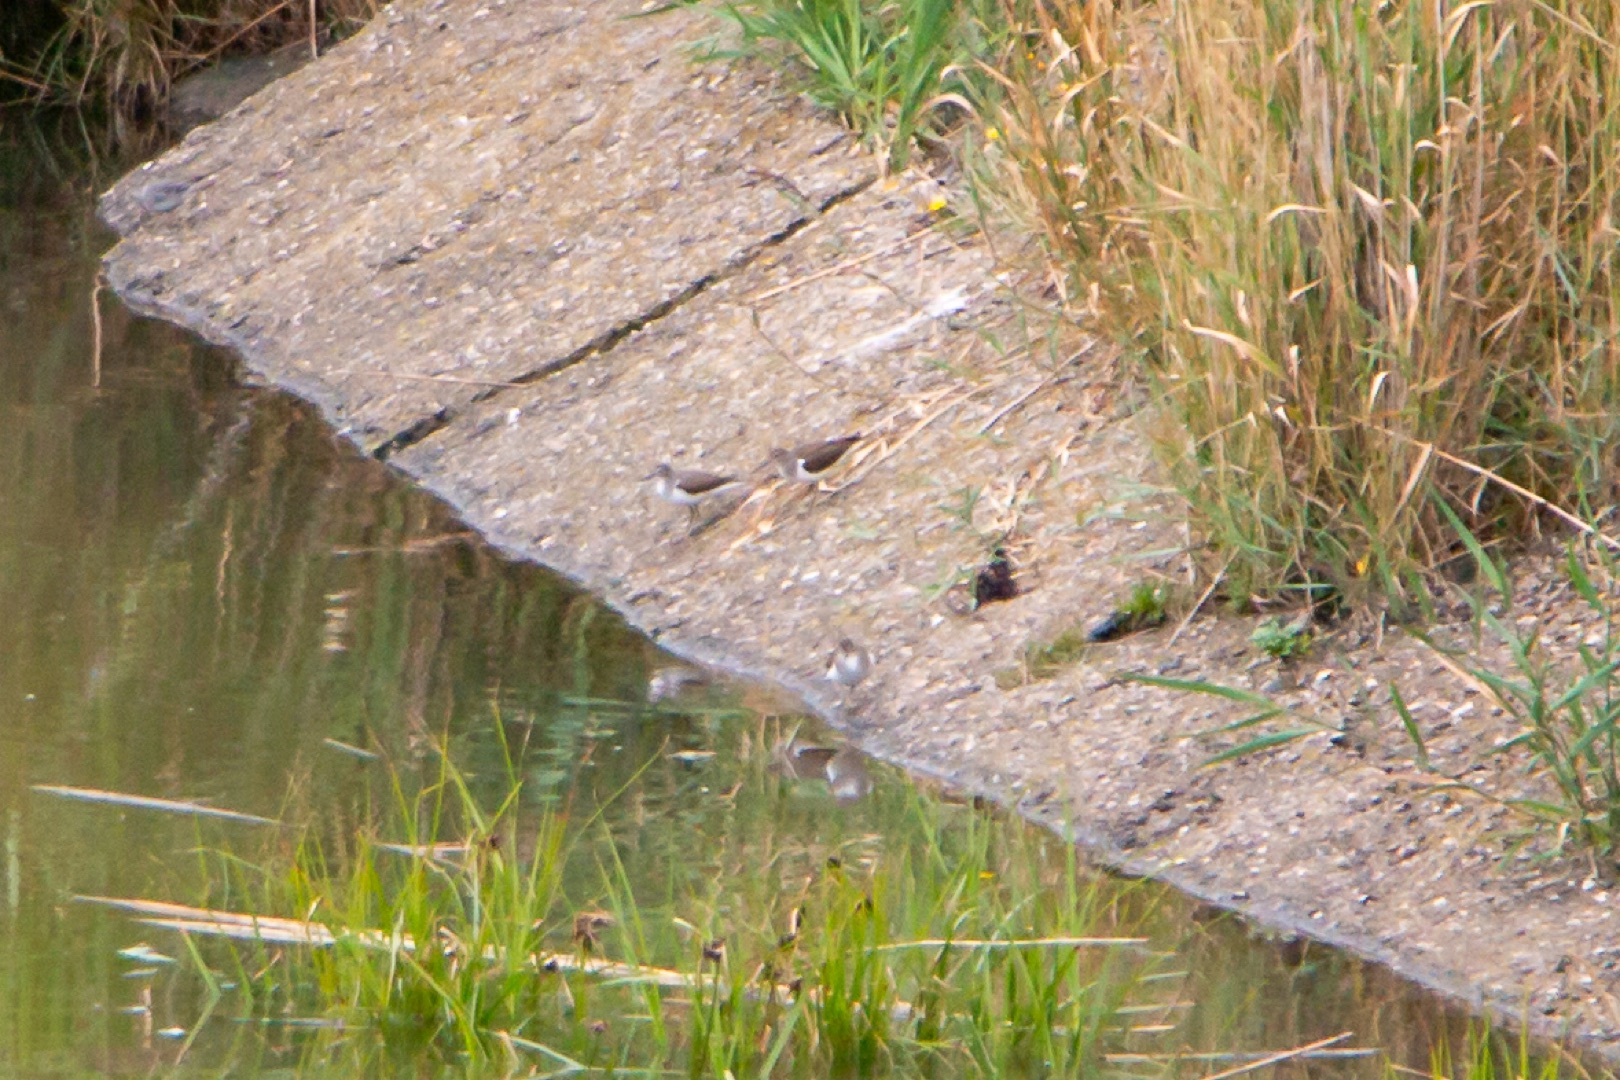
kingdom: Animalia
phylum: Chordata
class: Aves
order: Charadriiformes
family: Scolopacidae
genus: Actitis
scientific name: Actitis hypoleucos
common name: Mudderklire
